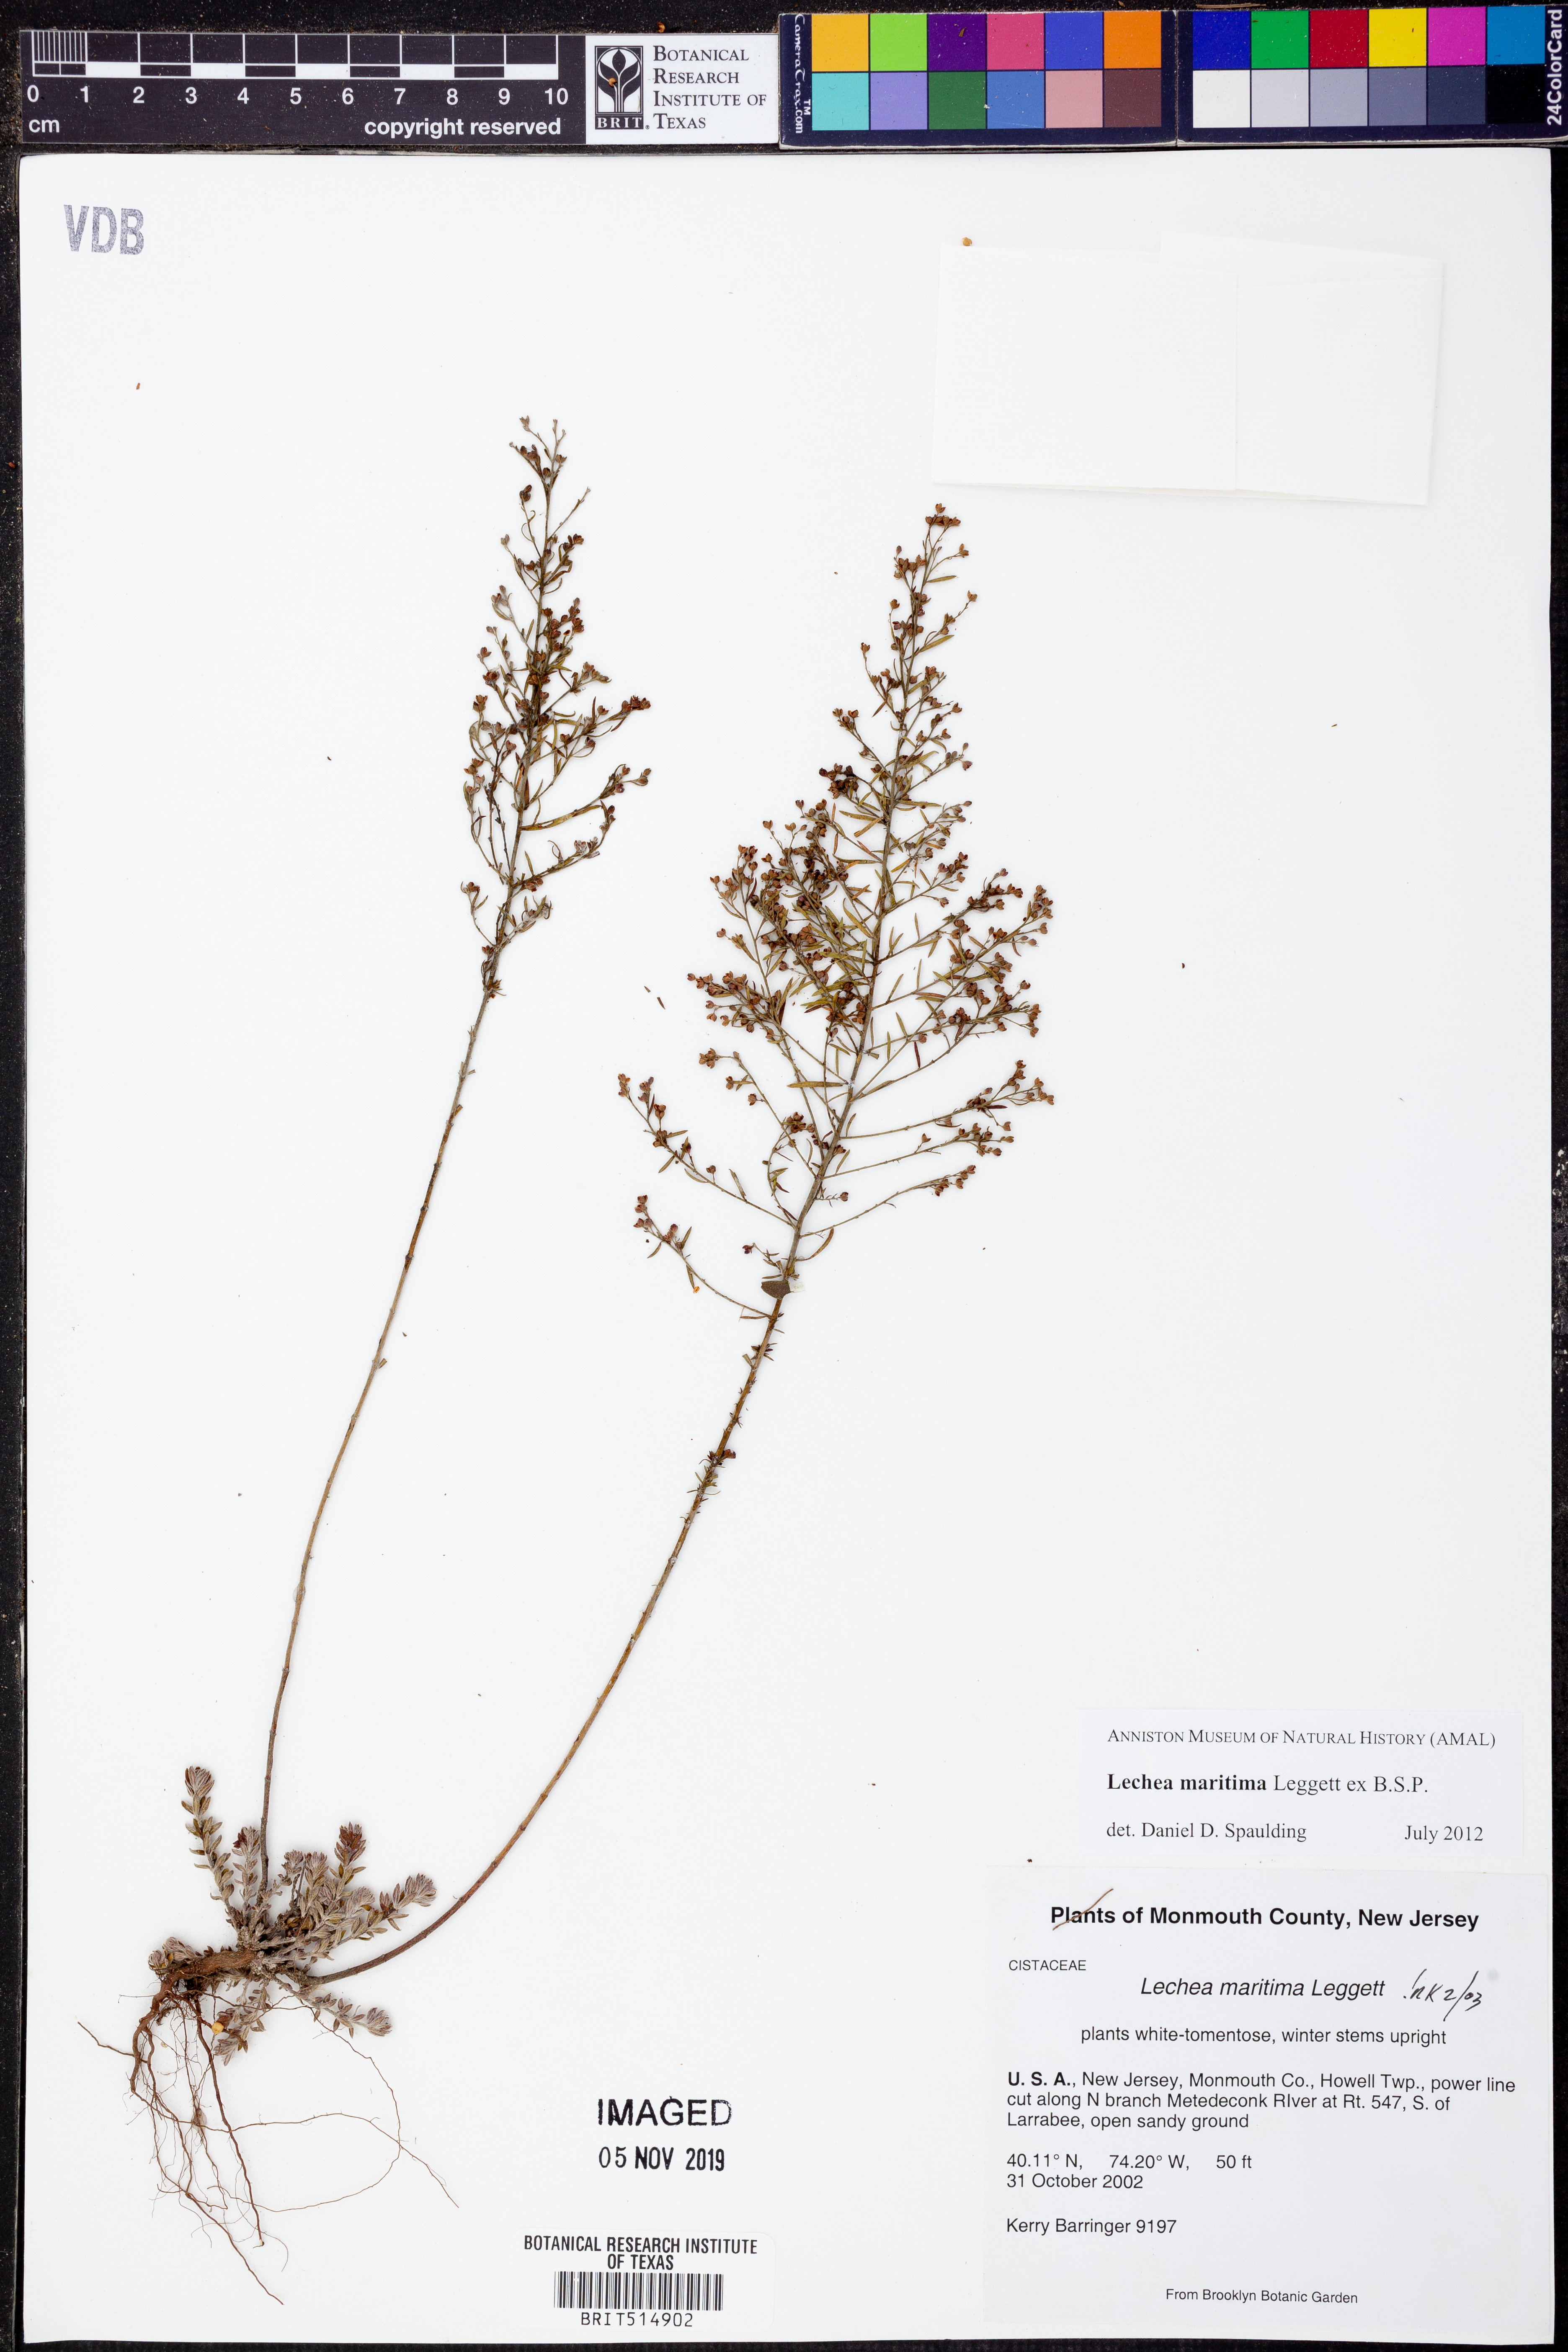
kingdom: Plantae
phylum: Tracheophyta
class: Magnoliopsida
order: Malvales
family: Cistaceae
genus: Lechea
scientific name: Lechea maritima
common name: Beach pinweed
